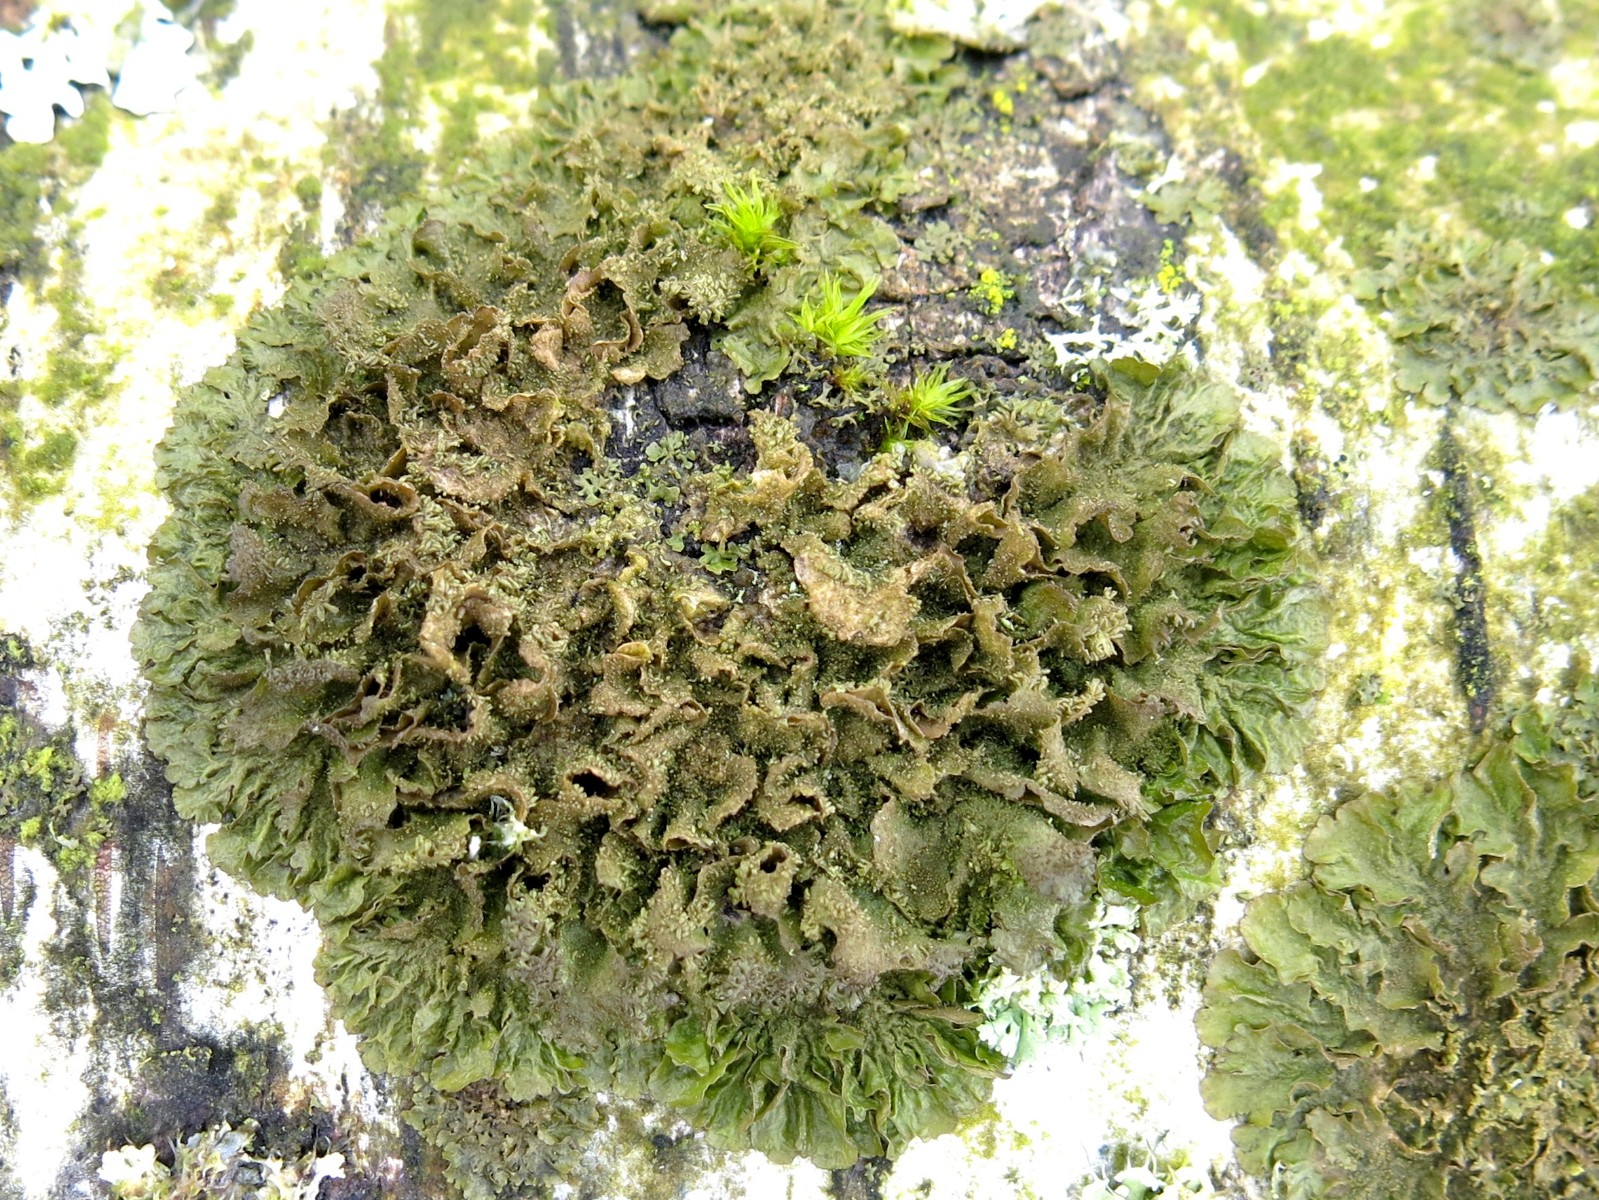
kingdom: Fungi
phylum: Ascomycota
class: Lecanoromycetes
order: Lecanorales
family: Parmeliaceae
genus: Melanohalea
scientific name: Melanohalea exasperatula
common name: kølle-skållav
